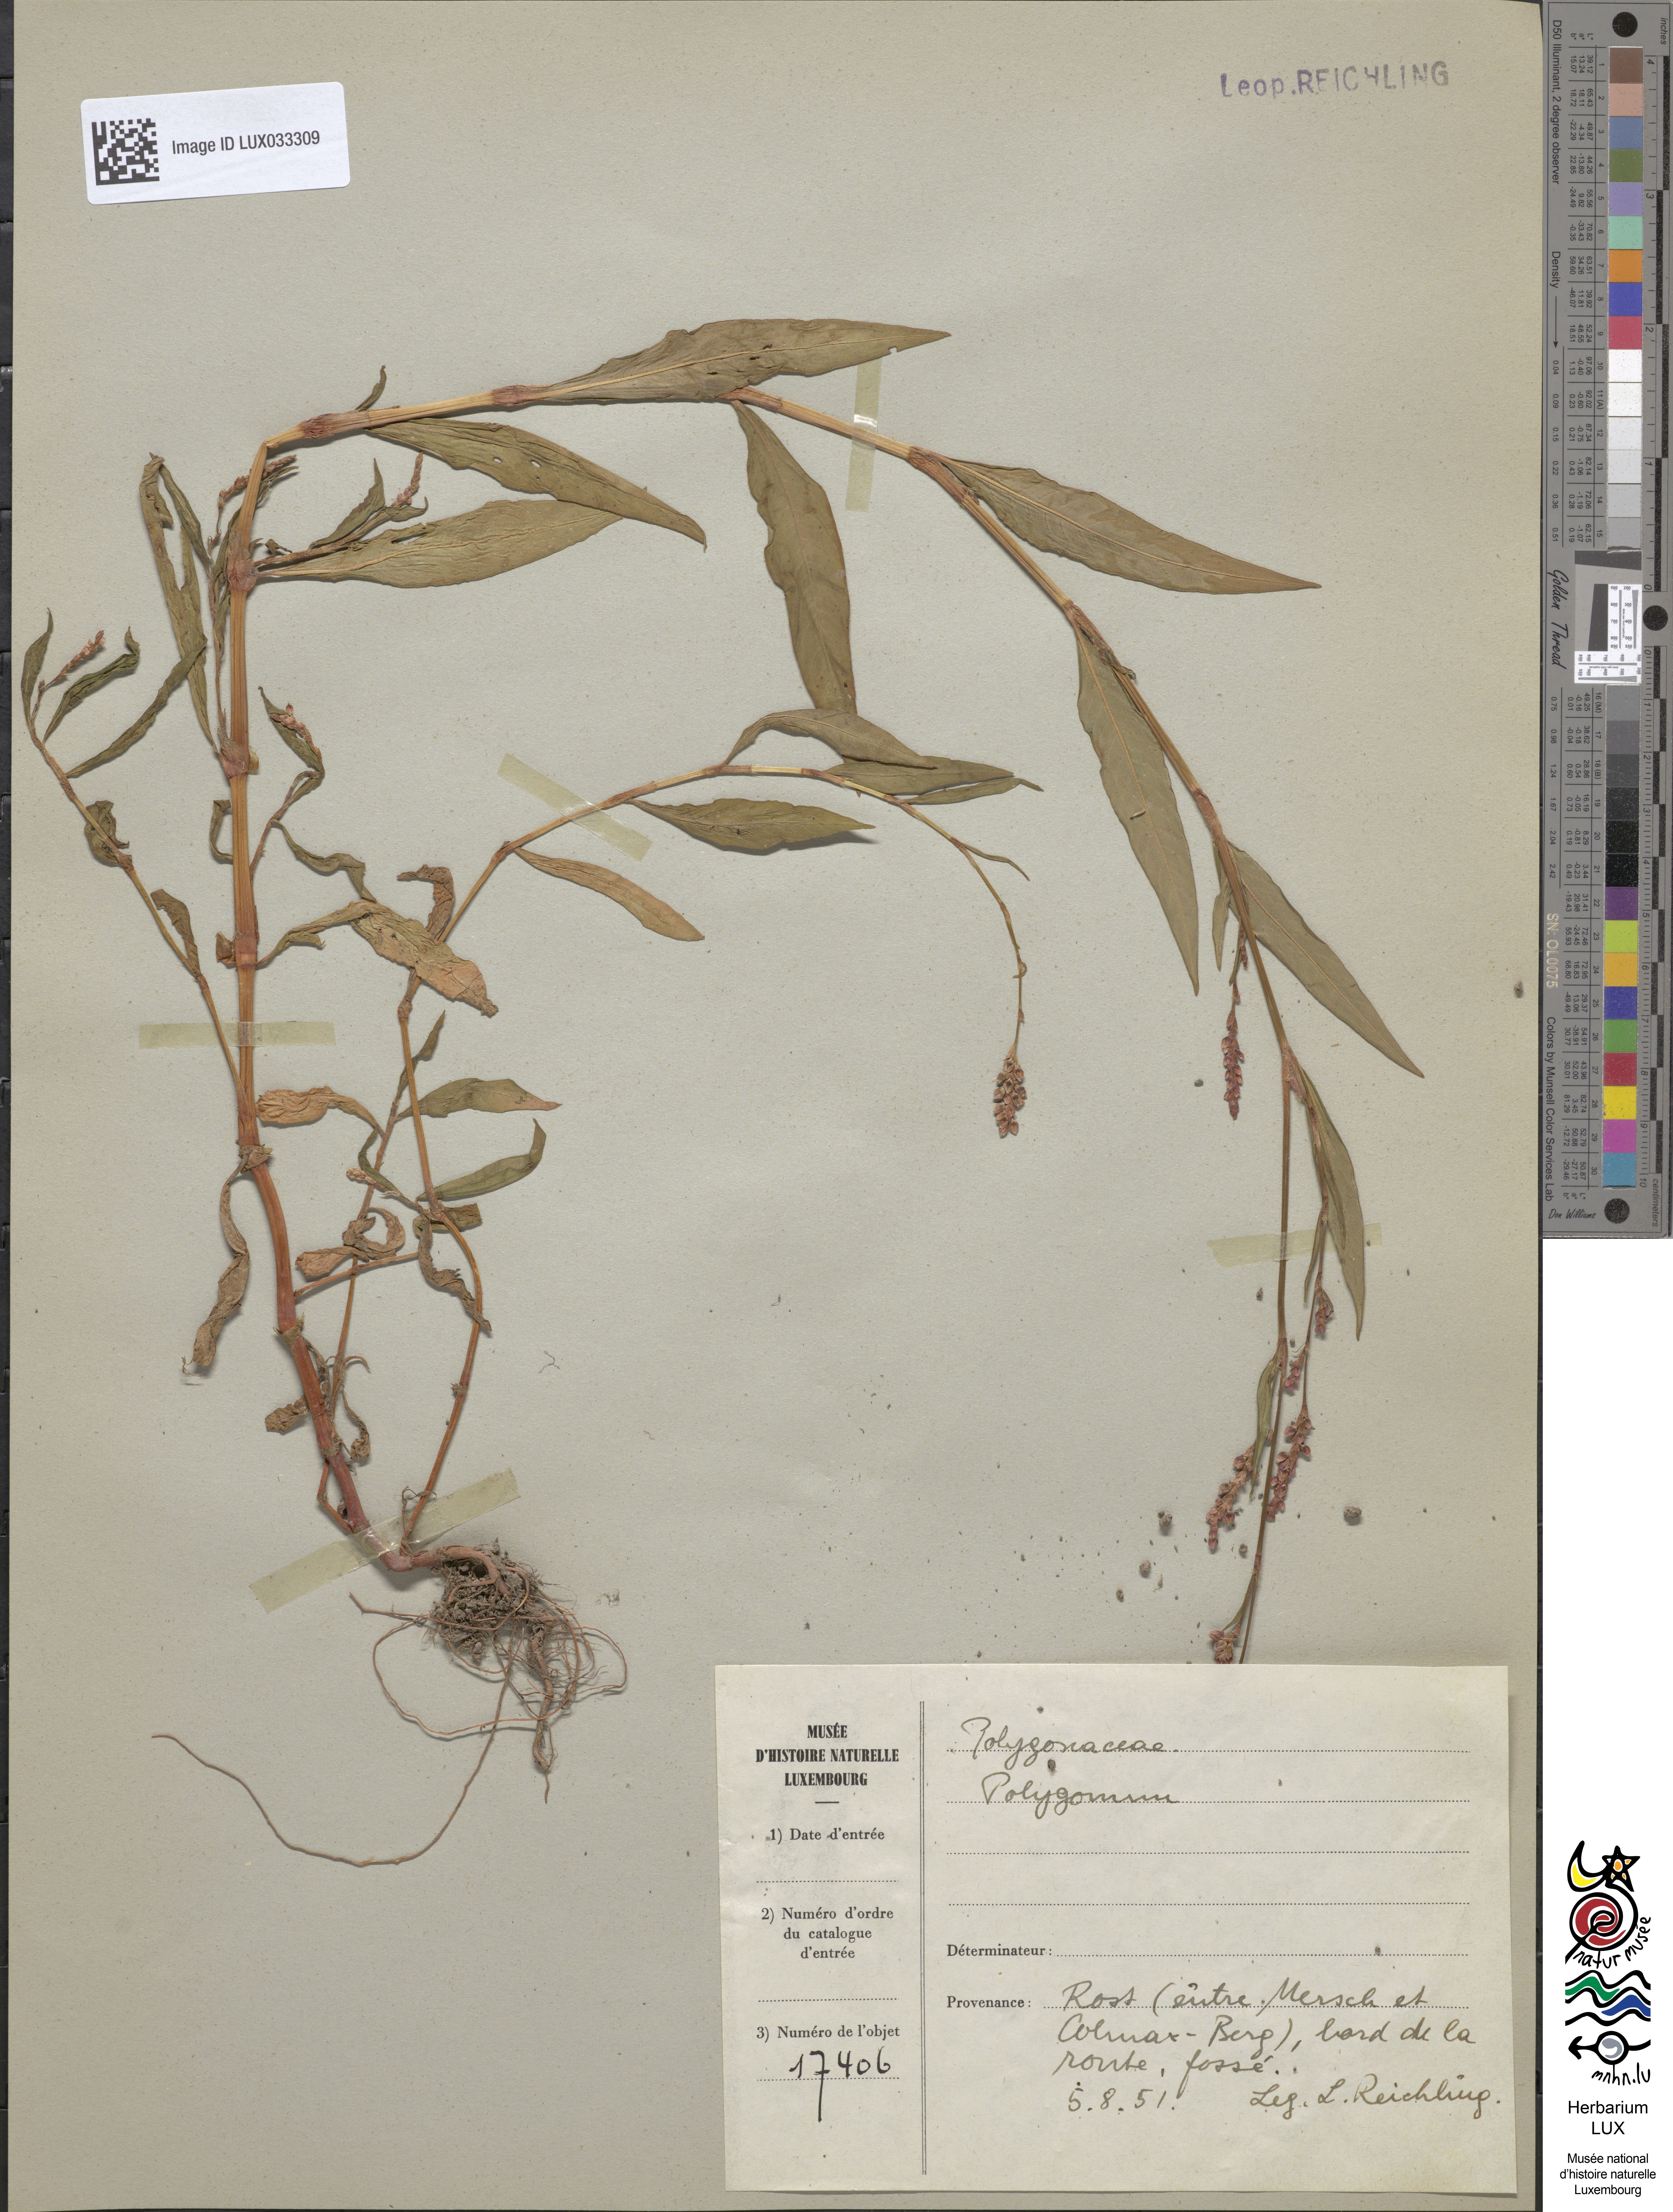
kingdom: Plantae
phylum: Tracheophyta
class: Magnoliopsida
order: Caryophyllales
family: Polygonaceae
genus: Polygonum
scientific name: Polygonum
